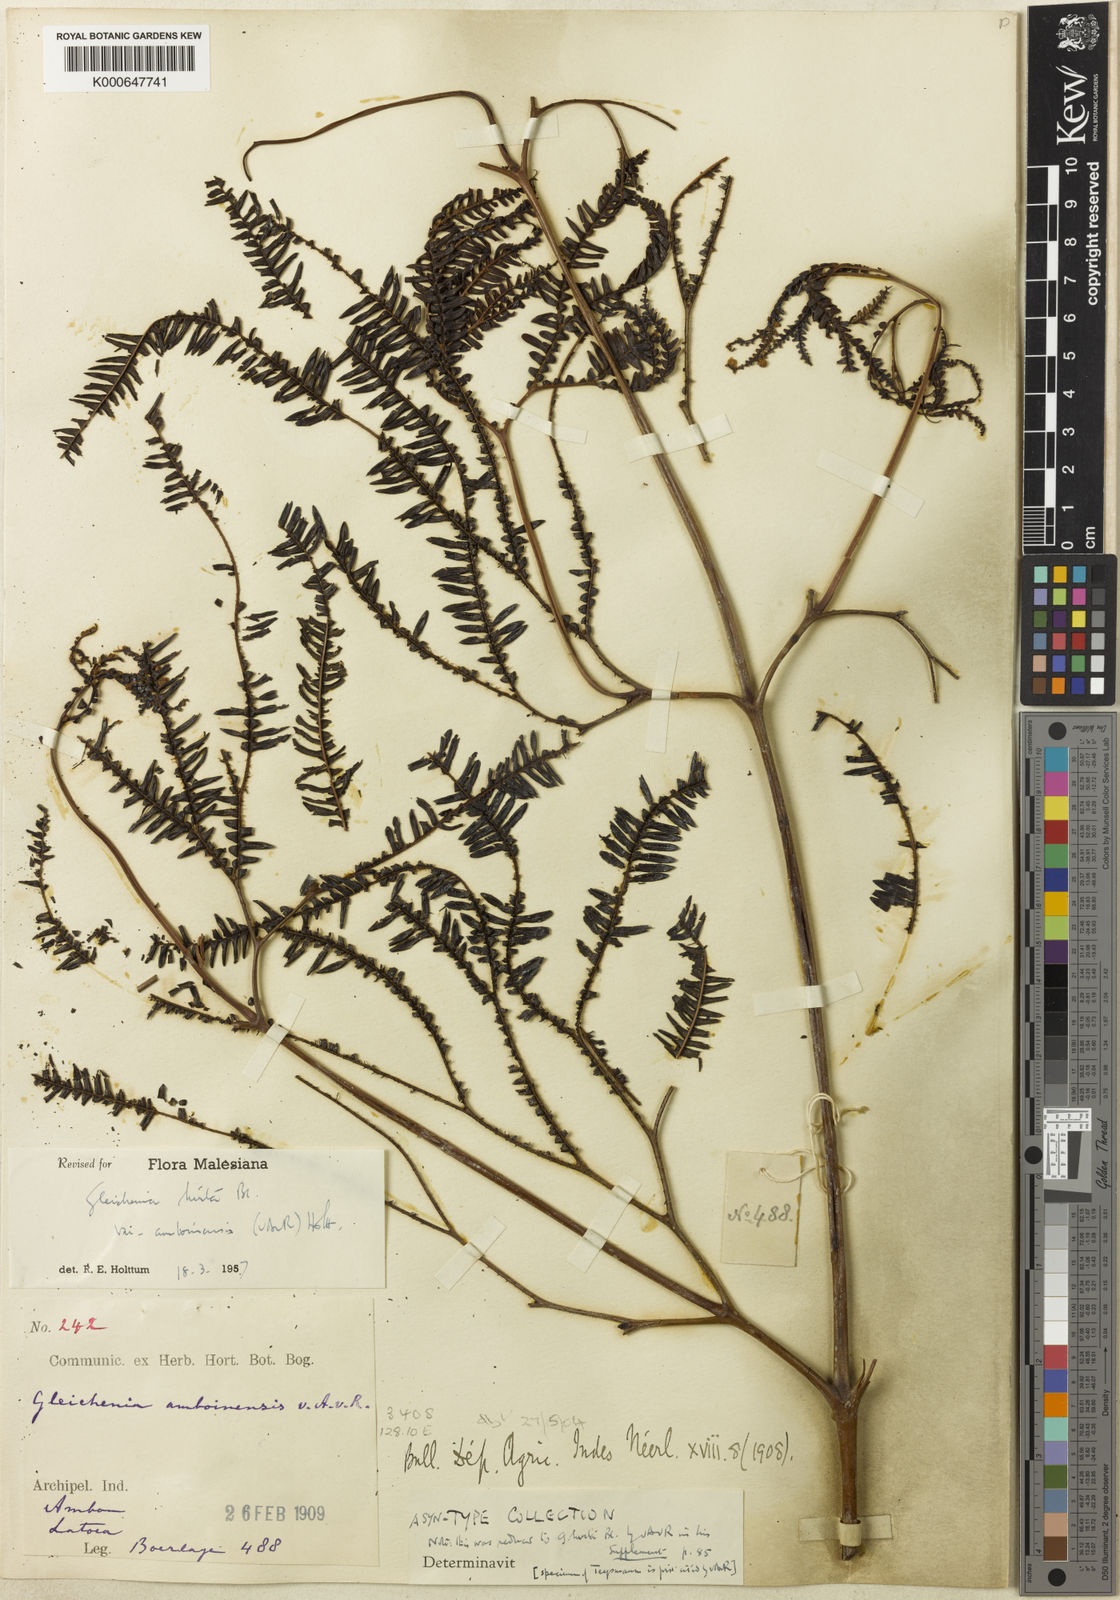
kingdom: Plantae
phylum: Tracheophyta
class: Polypodiopsida
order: Gleicheniales
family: Gleicheniaceae
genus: Sticherus
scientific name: Sticherus hirtus
